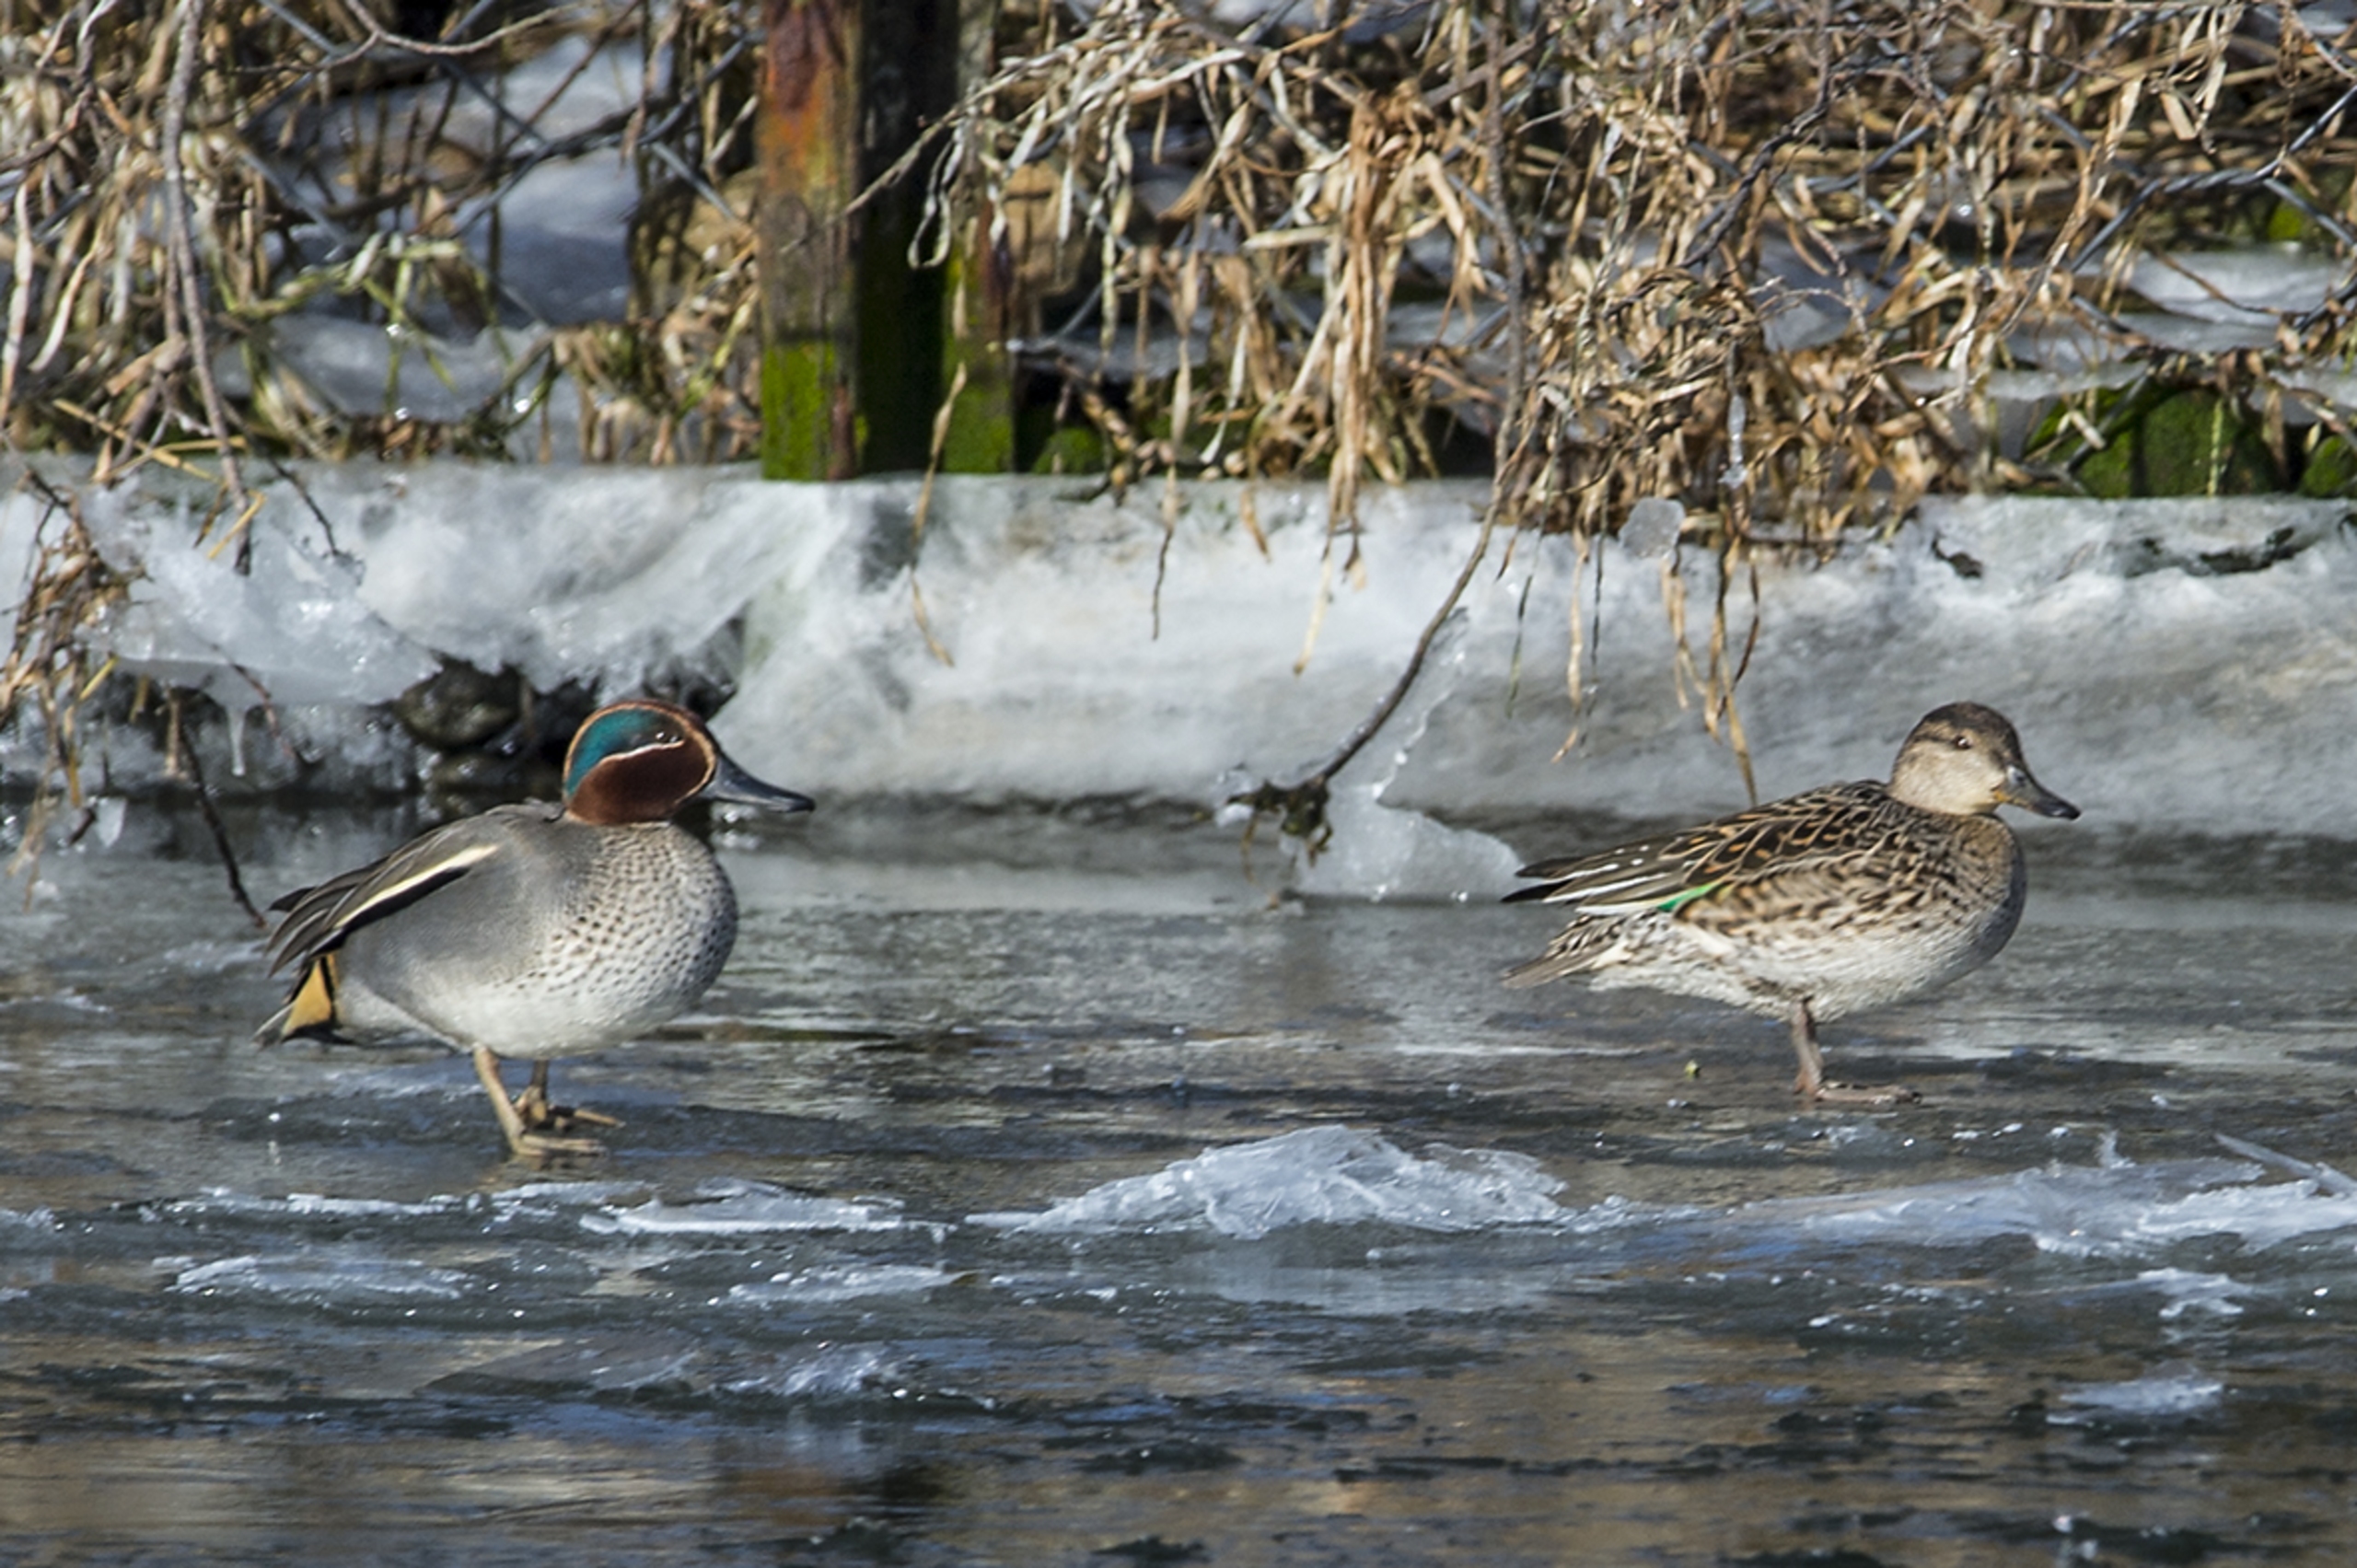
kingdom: Animalia
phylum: Chordata
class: Aves
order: Anseriformes
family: Anatidae
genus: Anas
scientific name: Anas crecca
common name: Krikand
